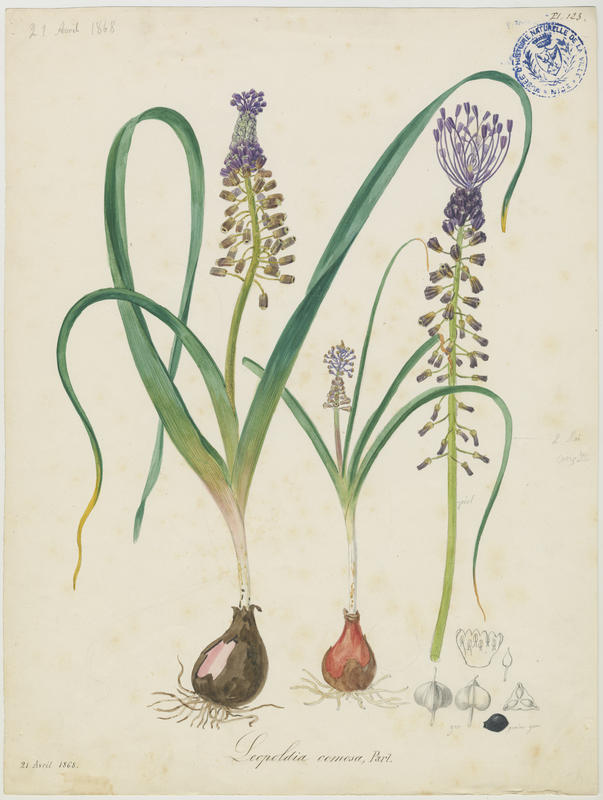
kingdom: Plantae
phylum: Tracheophyta
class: Liliopsida
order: Asparagales
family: Asparagaceae
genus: Muscari
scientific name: Muscari comosum
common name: Tassel hyacinth
